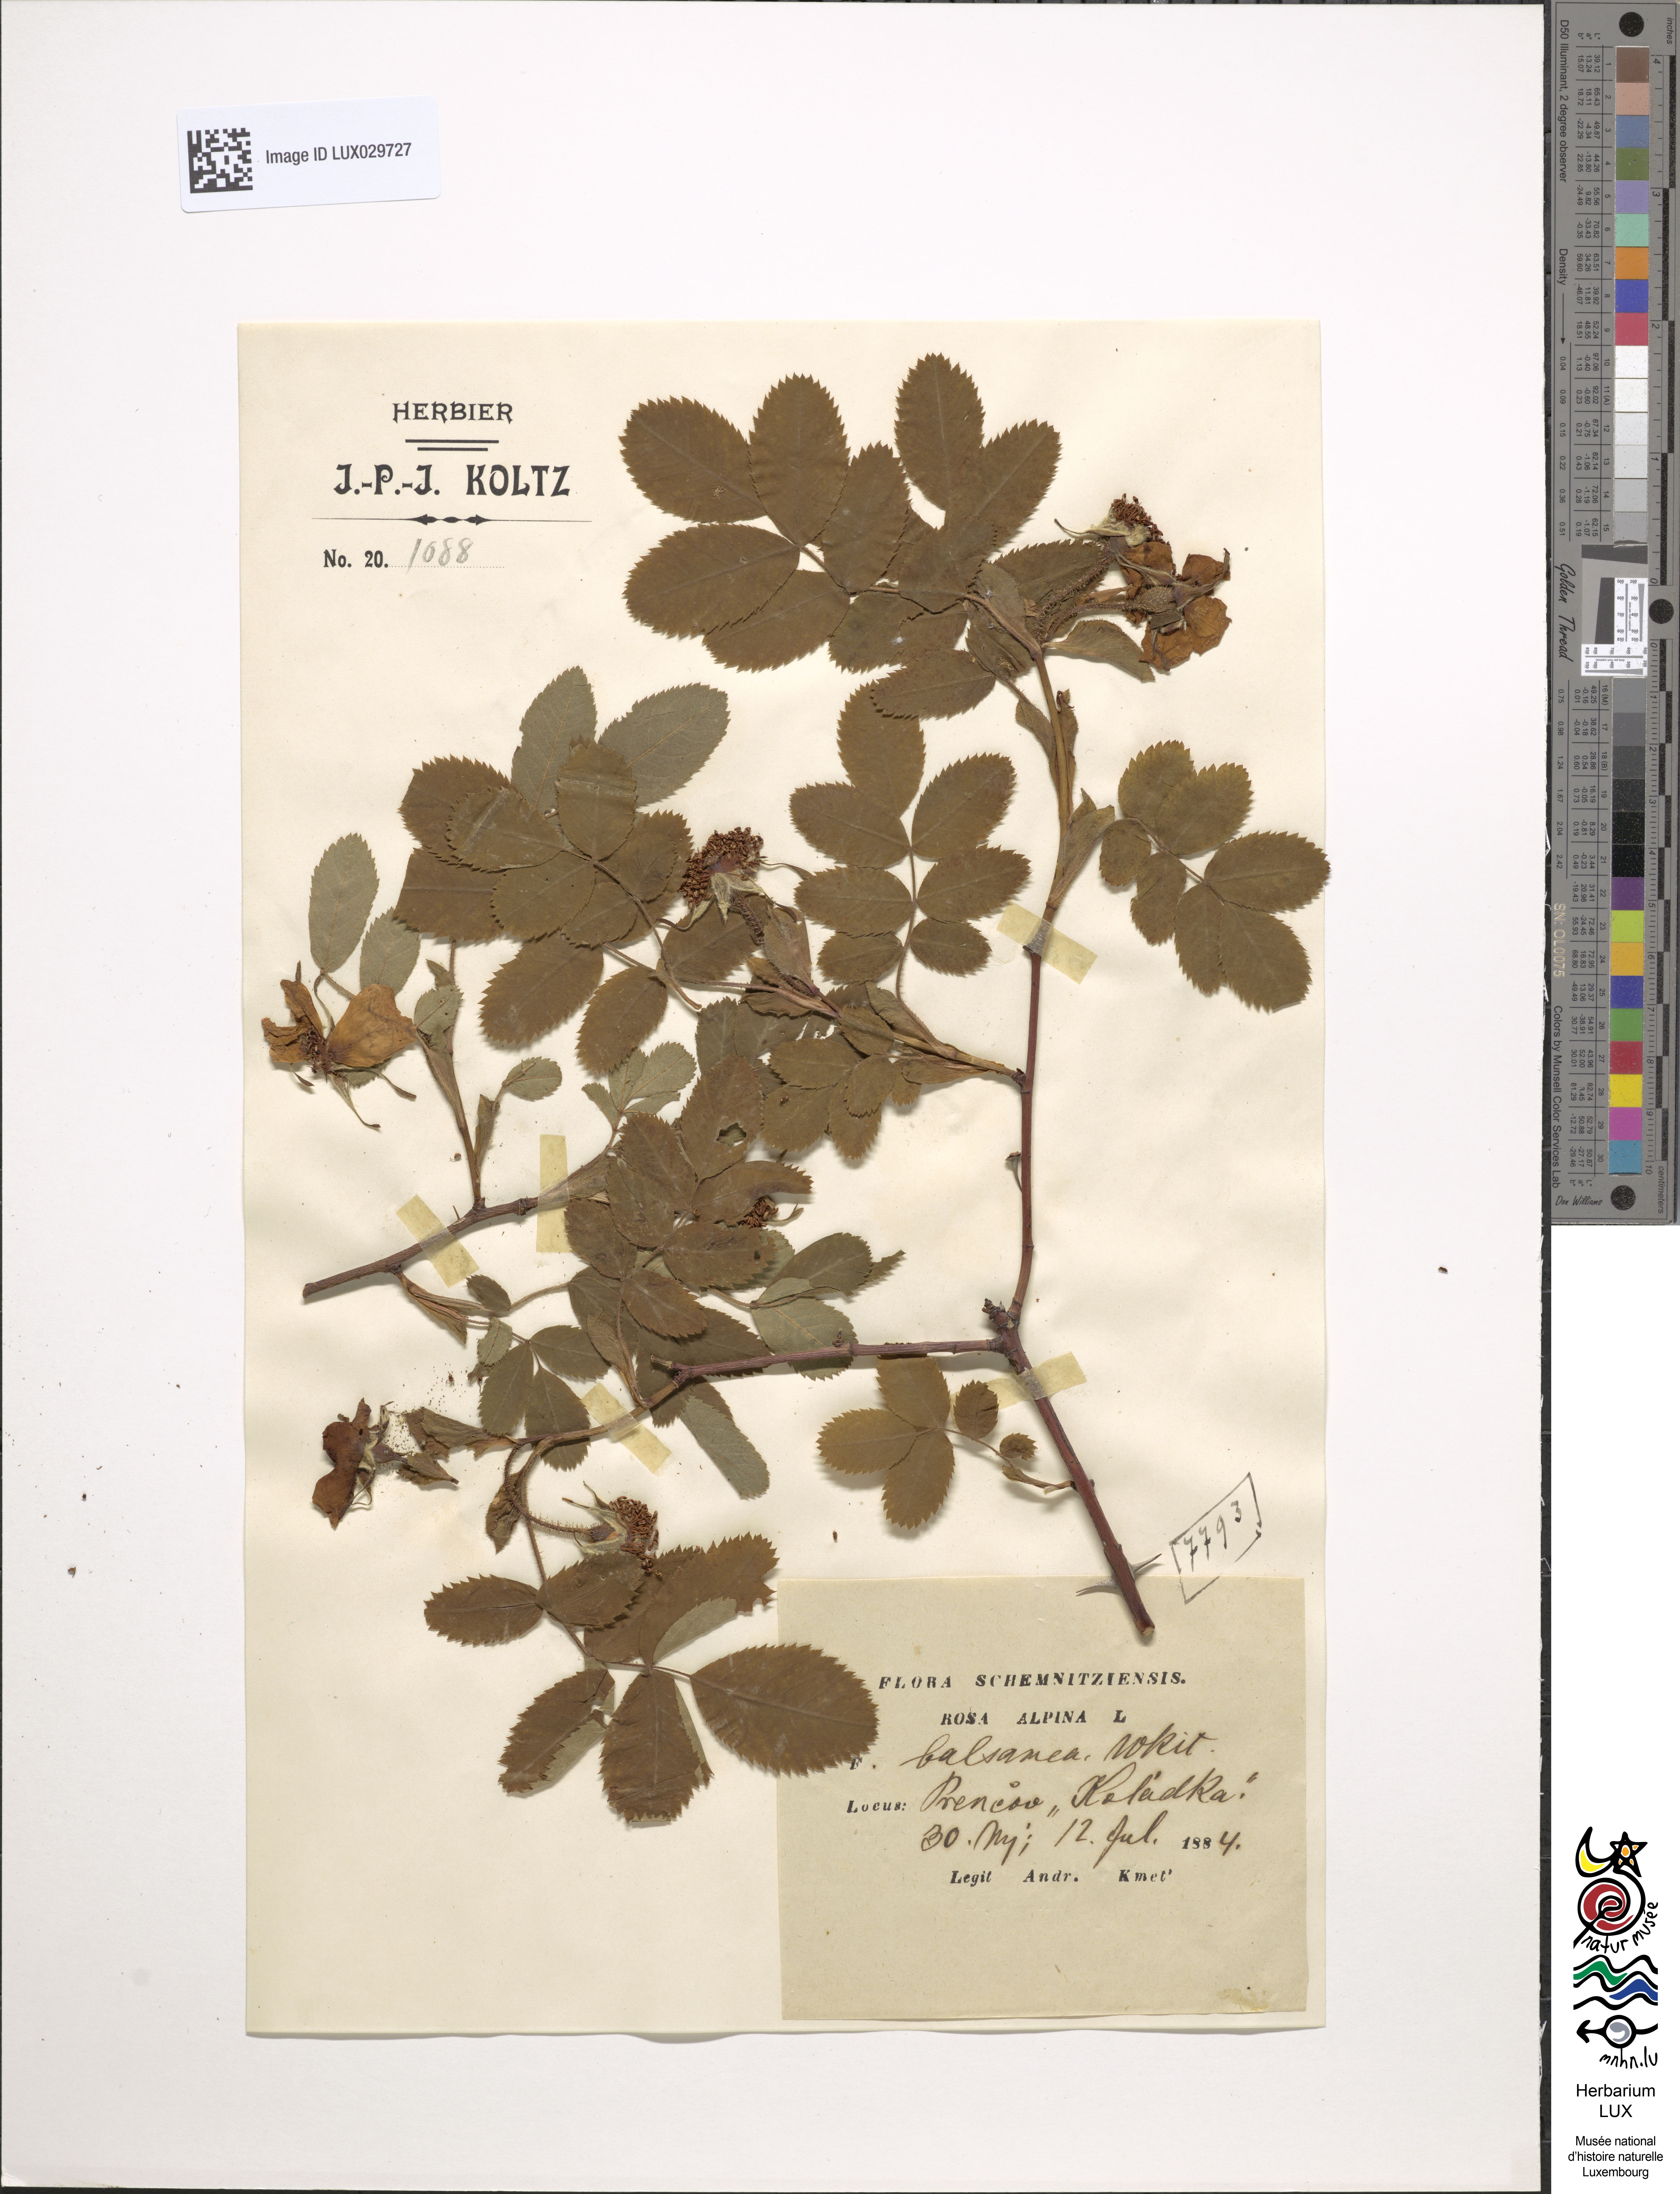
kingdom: Plantae
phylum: Tracheophyta
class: Magnoliopsida
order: Rosales
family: Rosaceae
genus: Rosa
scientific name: Rosa
